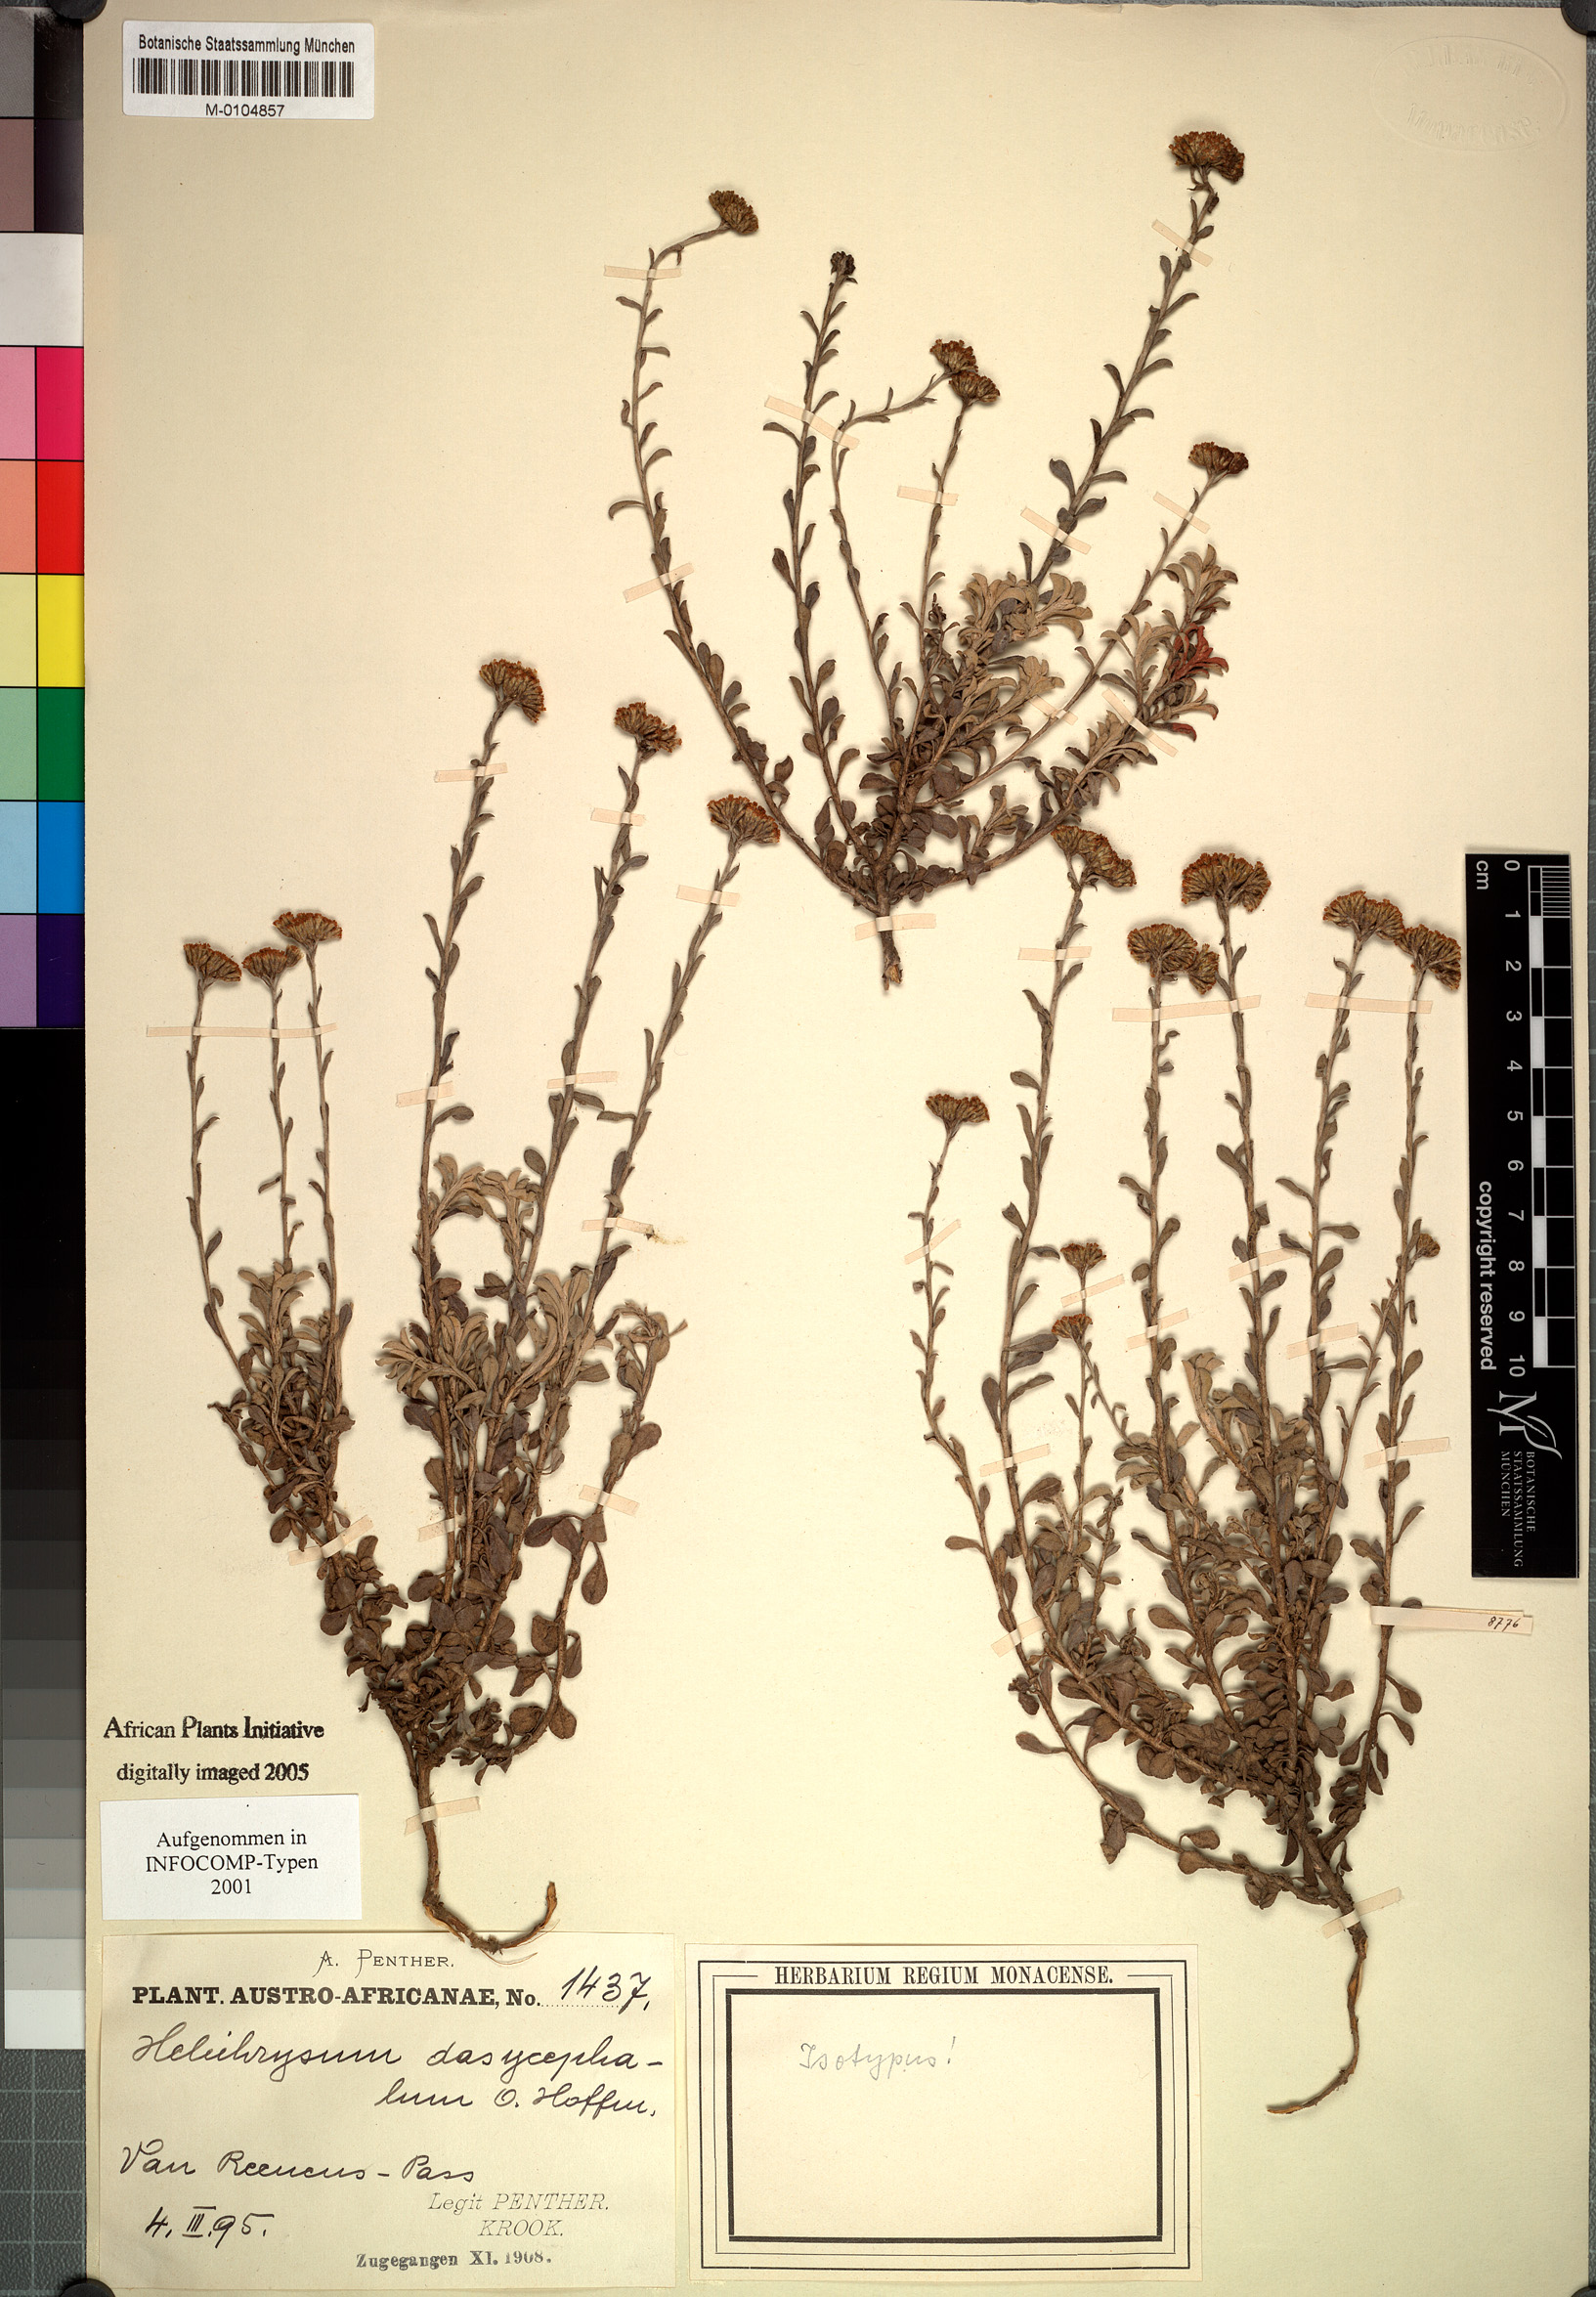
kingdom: Plantae
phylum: Tracheophyta
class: Magnoliopsida
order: Asterales
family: Asteraceae
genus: Helichrysum
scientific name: Helichrysum dasycephalum
